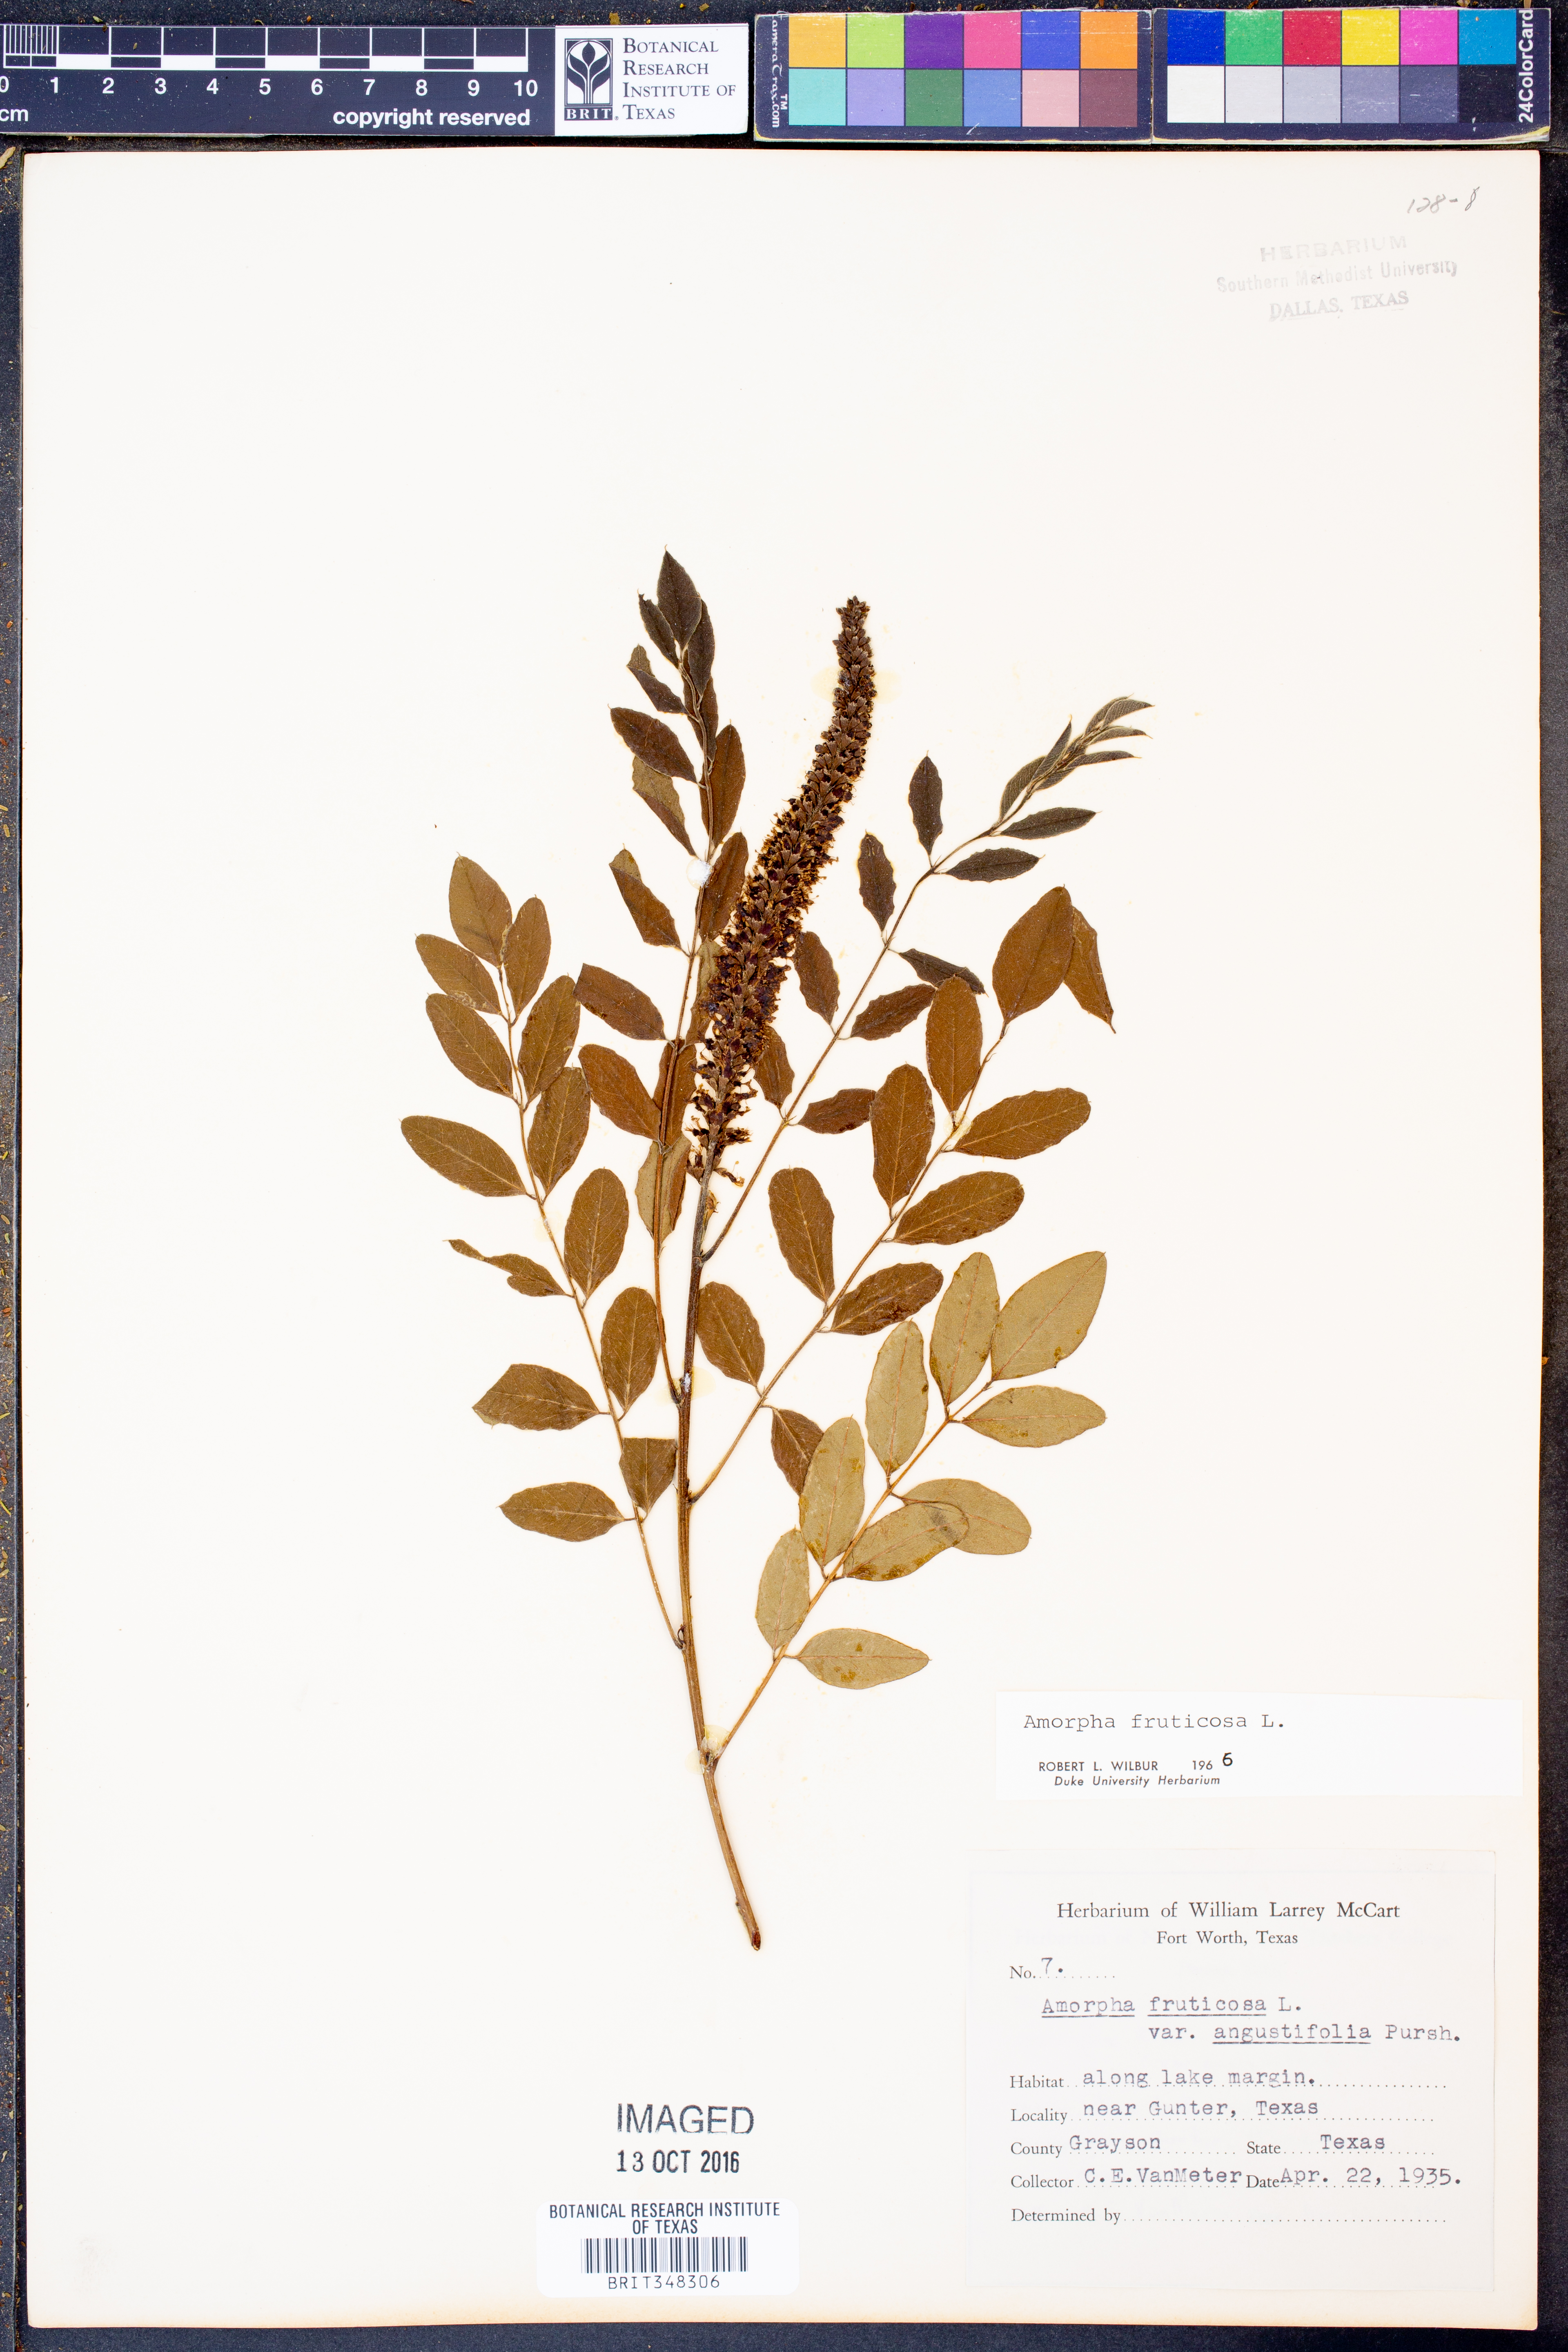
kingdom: Plantae
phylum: Tracheophyta
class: Magnoliopsida
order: Fabales
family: Fabaceae
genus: Amorpha
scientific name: Amorpha fruticosa
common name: False indigo
